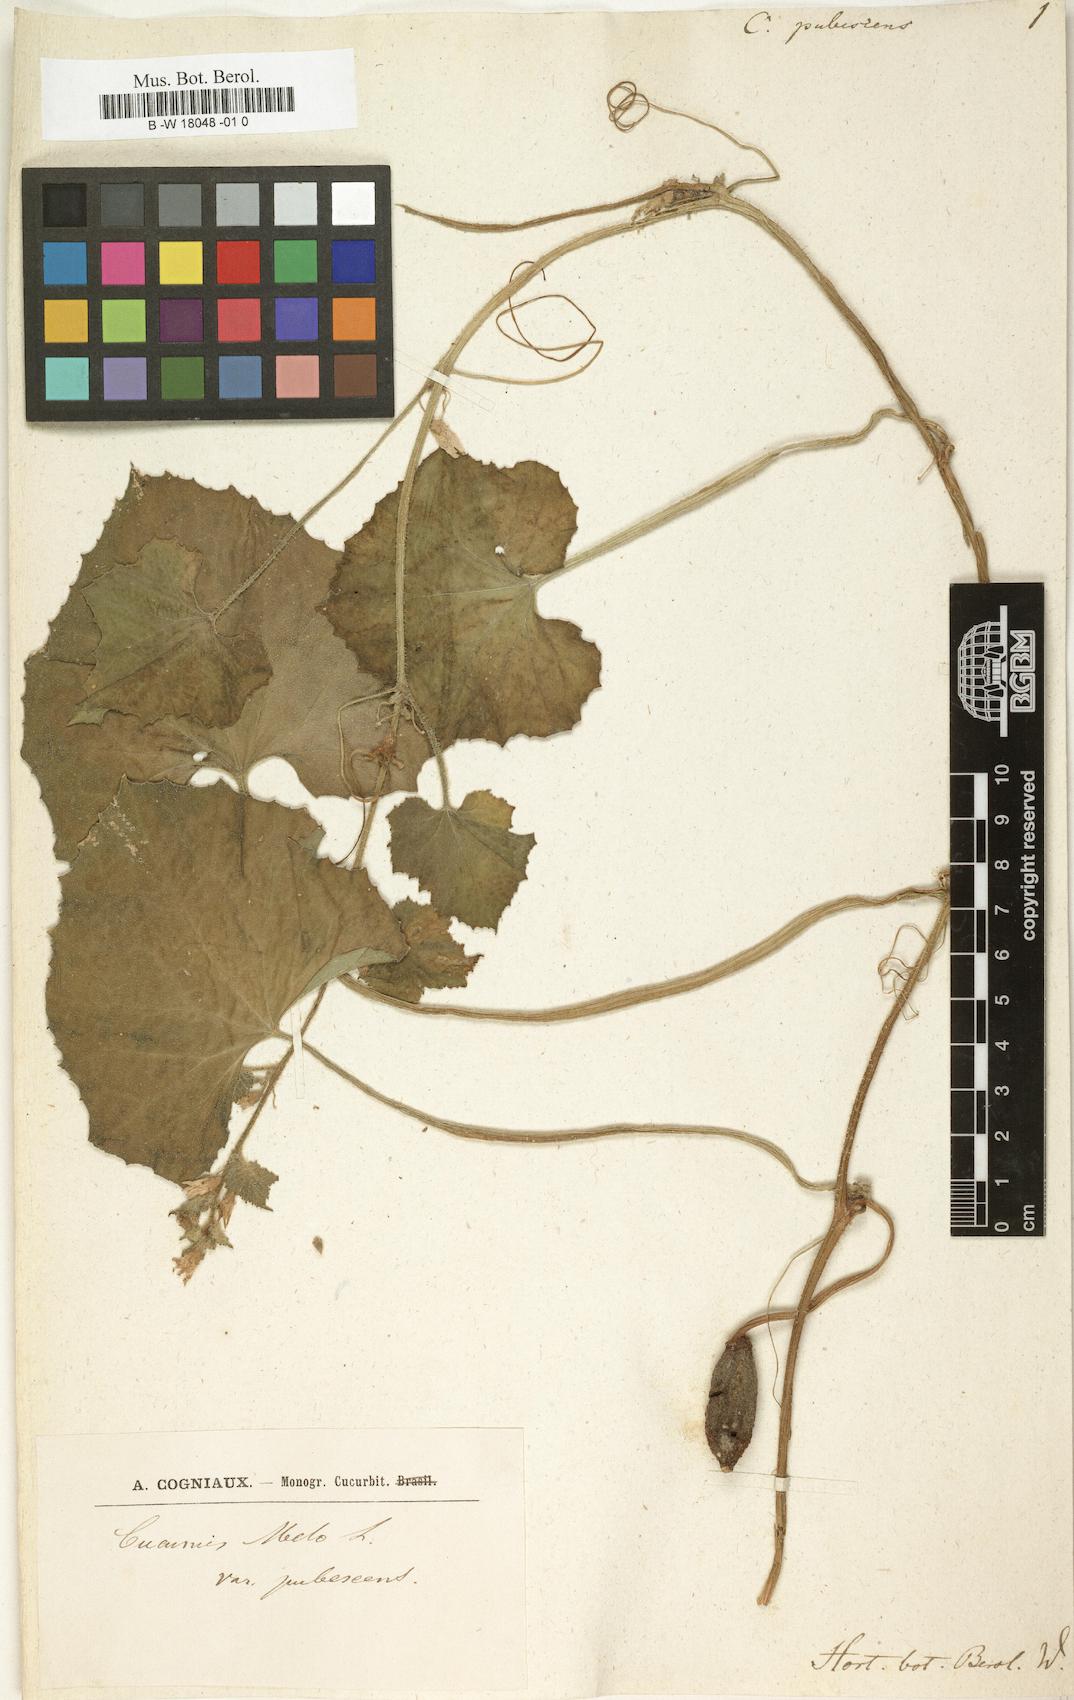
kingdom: Plantae
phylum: Tracheophyta
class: Magnoliopsida
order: Cucurbitales
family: Cucurbitaceae
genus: Cucumis
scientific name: Cucumis pubescens
